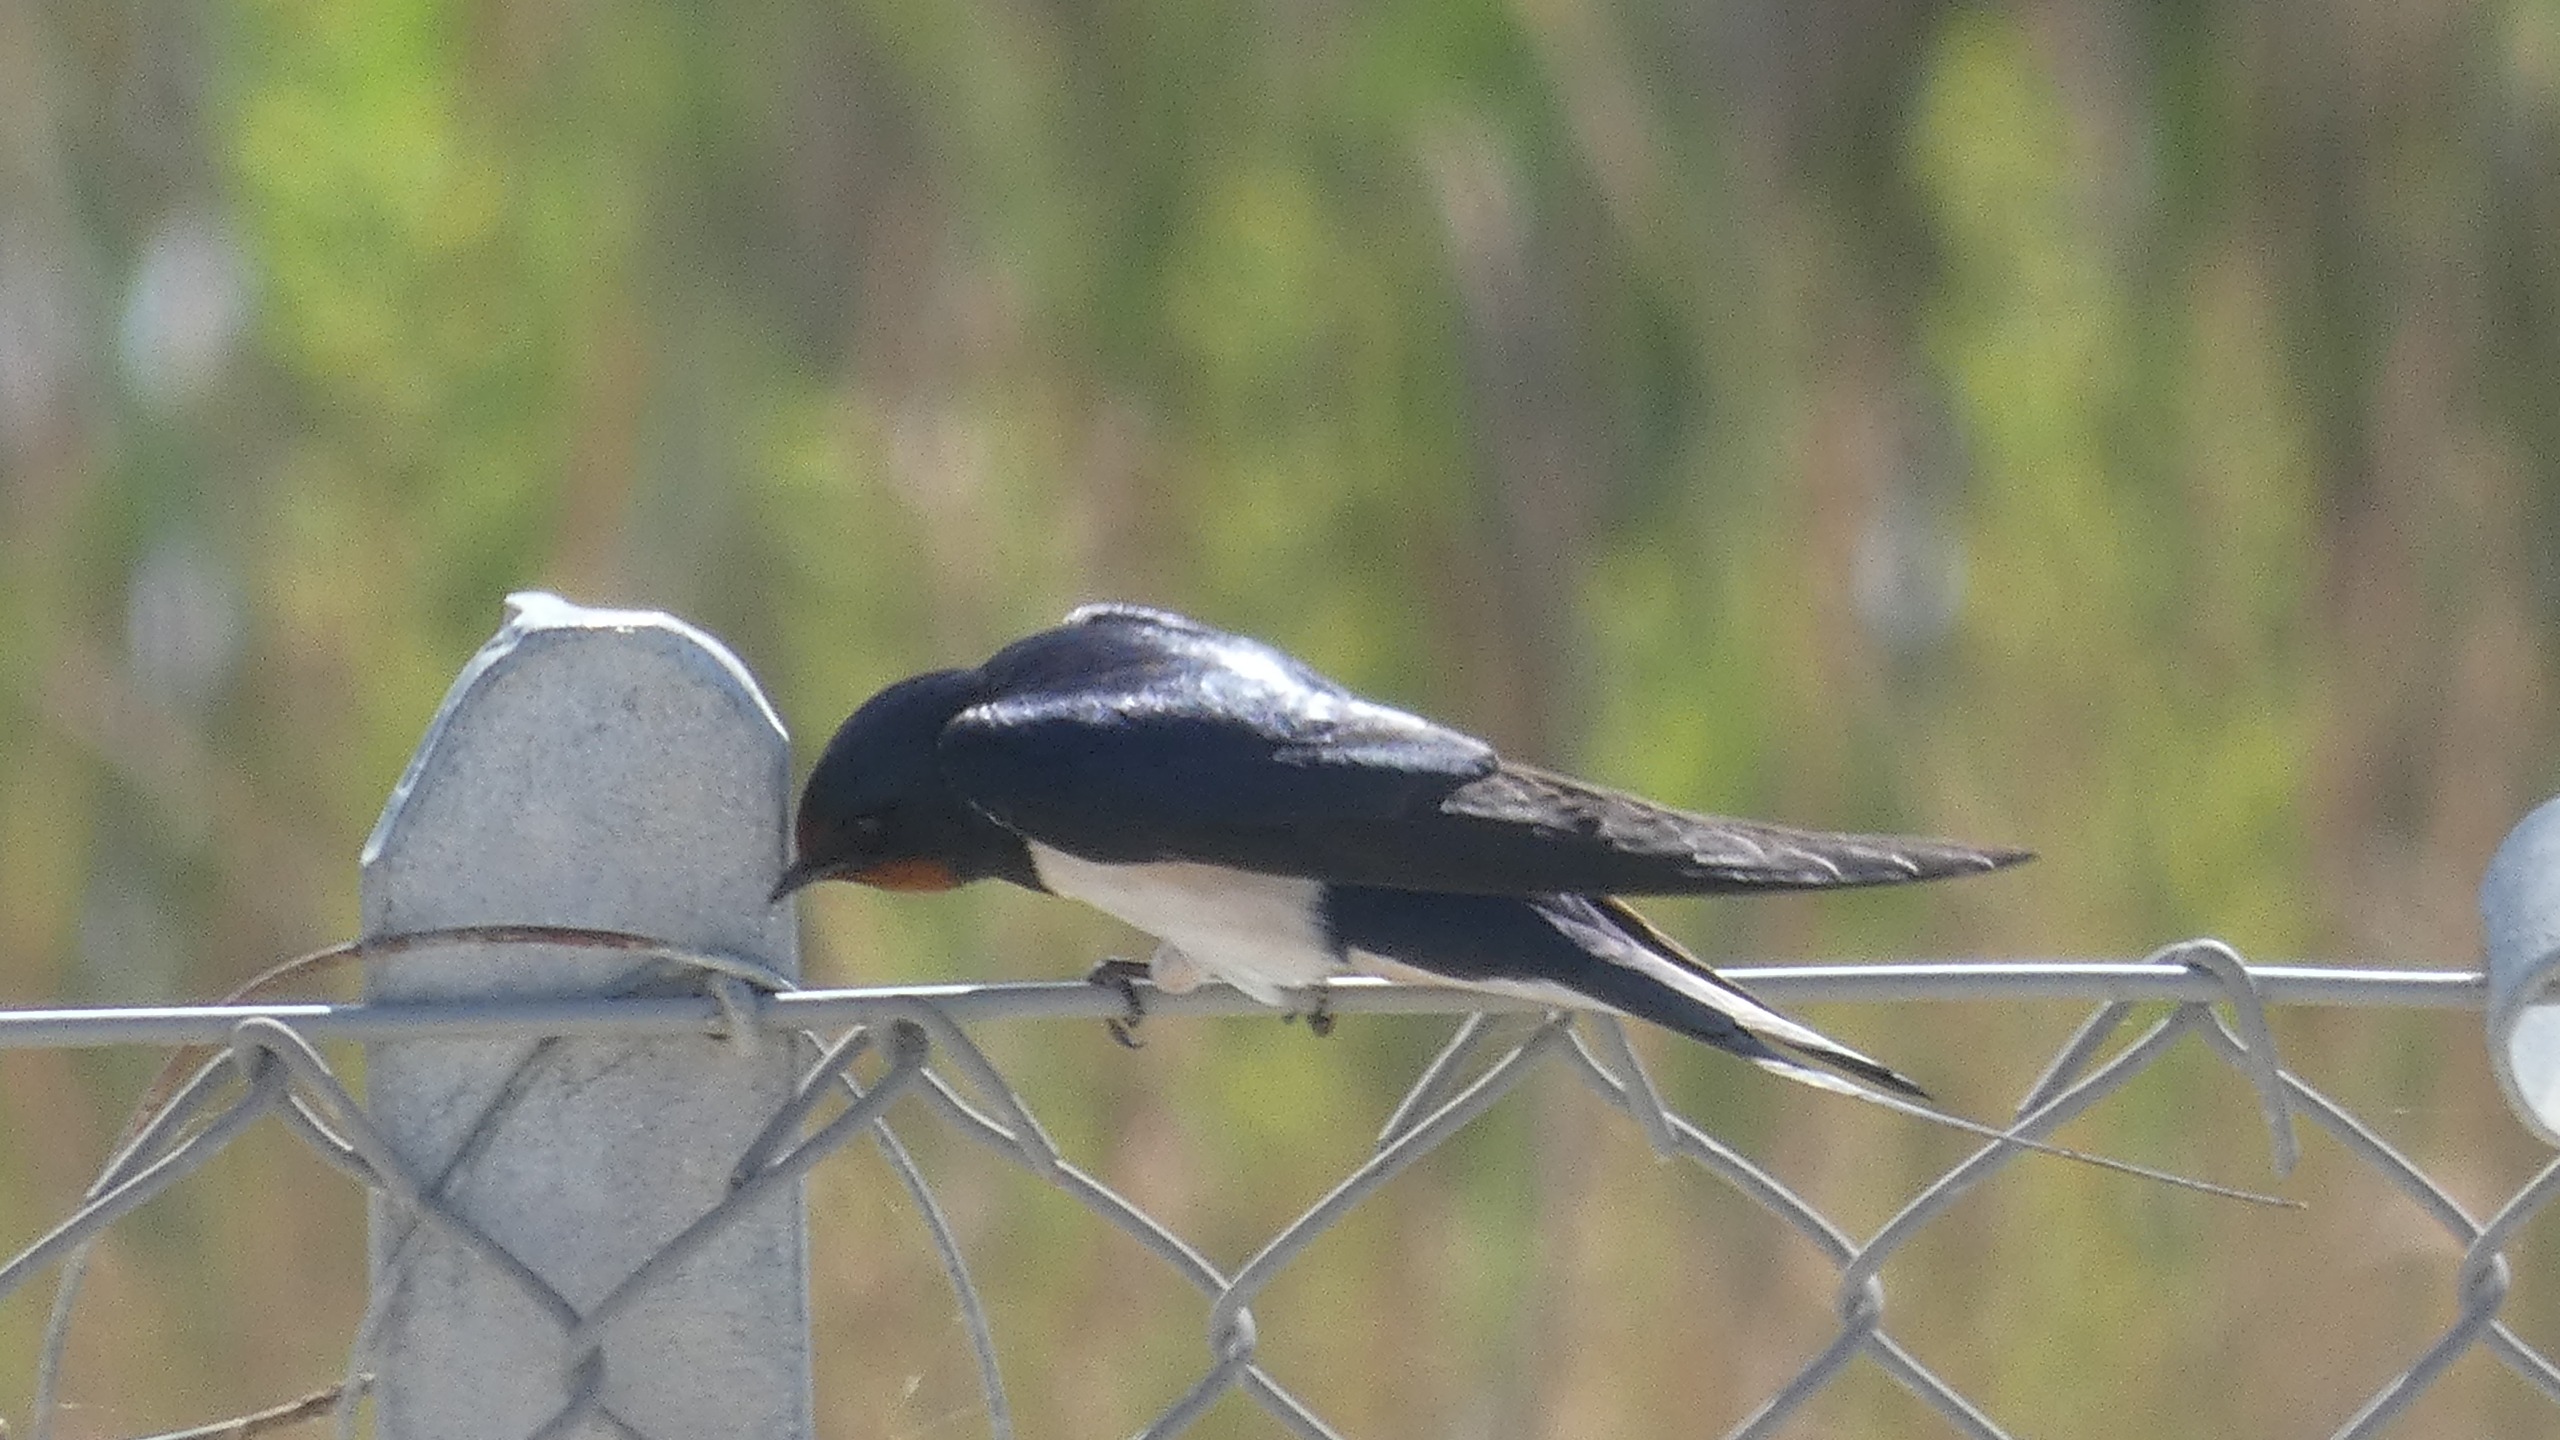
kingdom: Animalia
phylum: Chordata
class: Aves
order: Passeriformes
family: Hirundinidae
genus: Hirundo
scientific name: Hirundo rustica
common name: Landsvale
